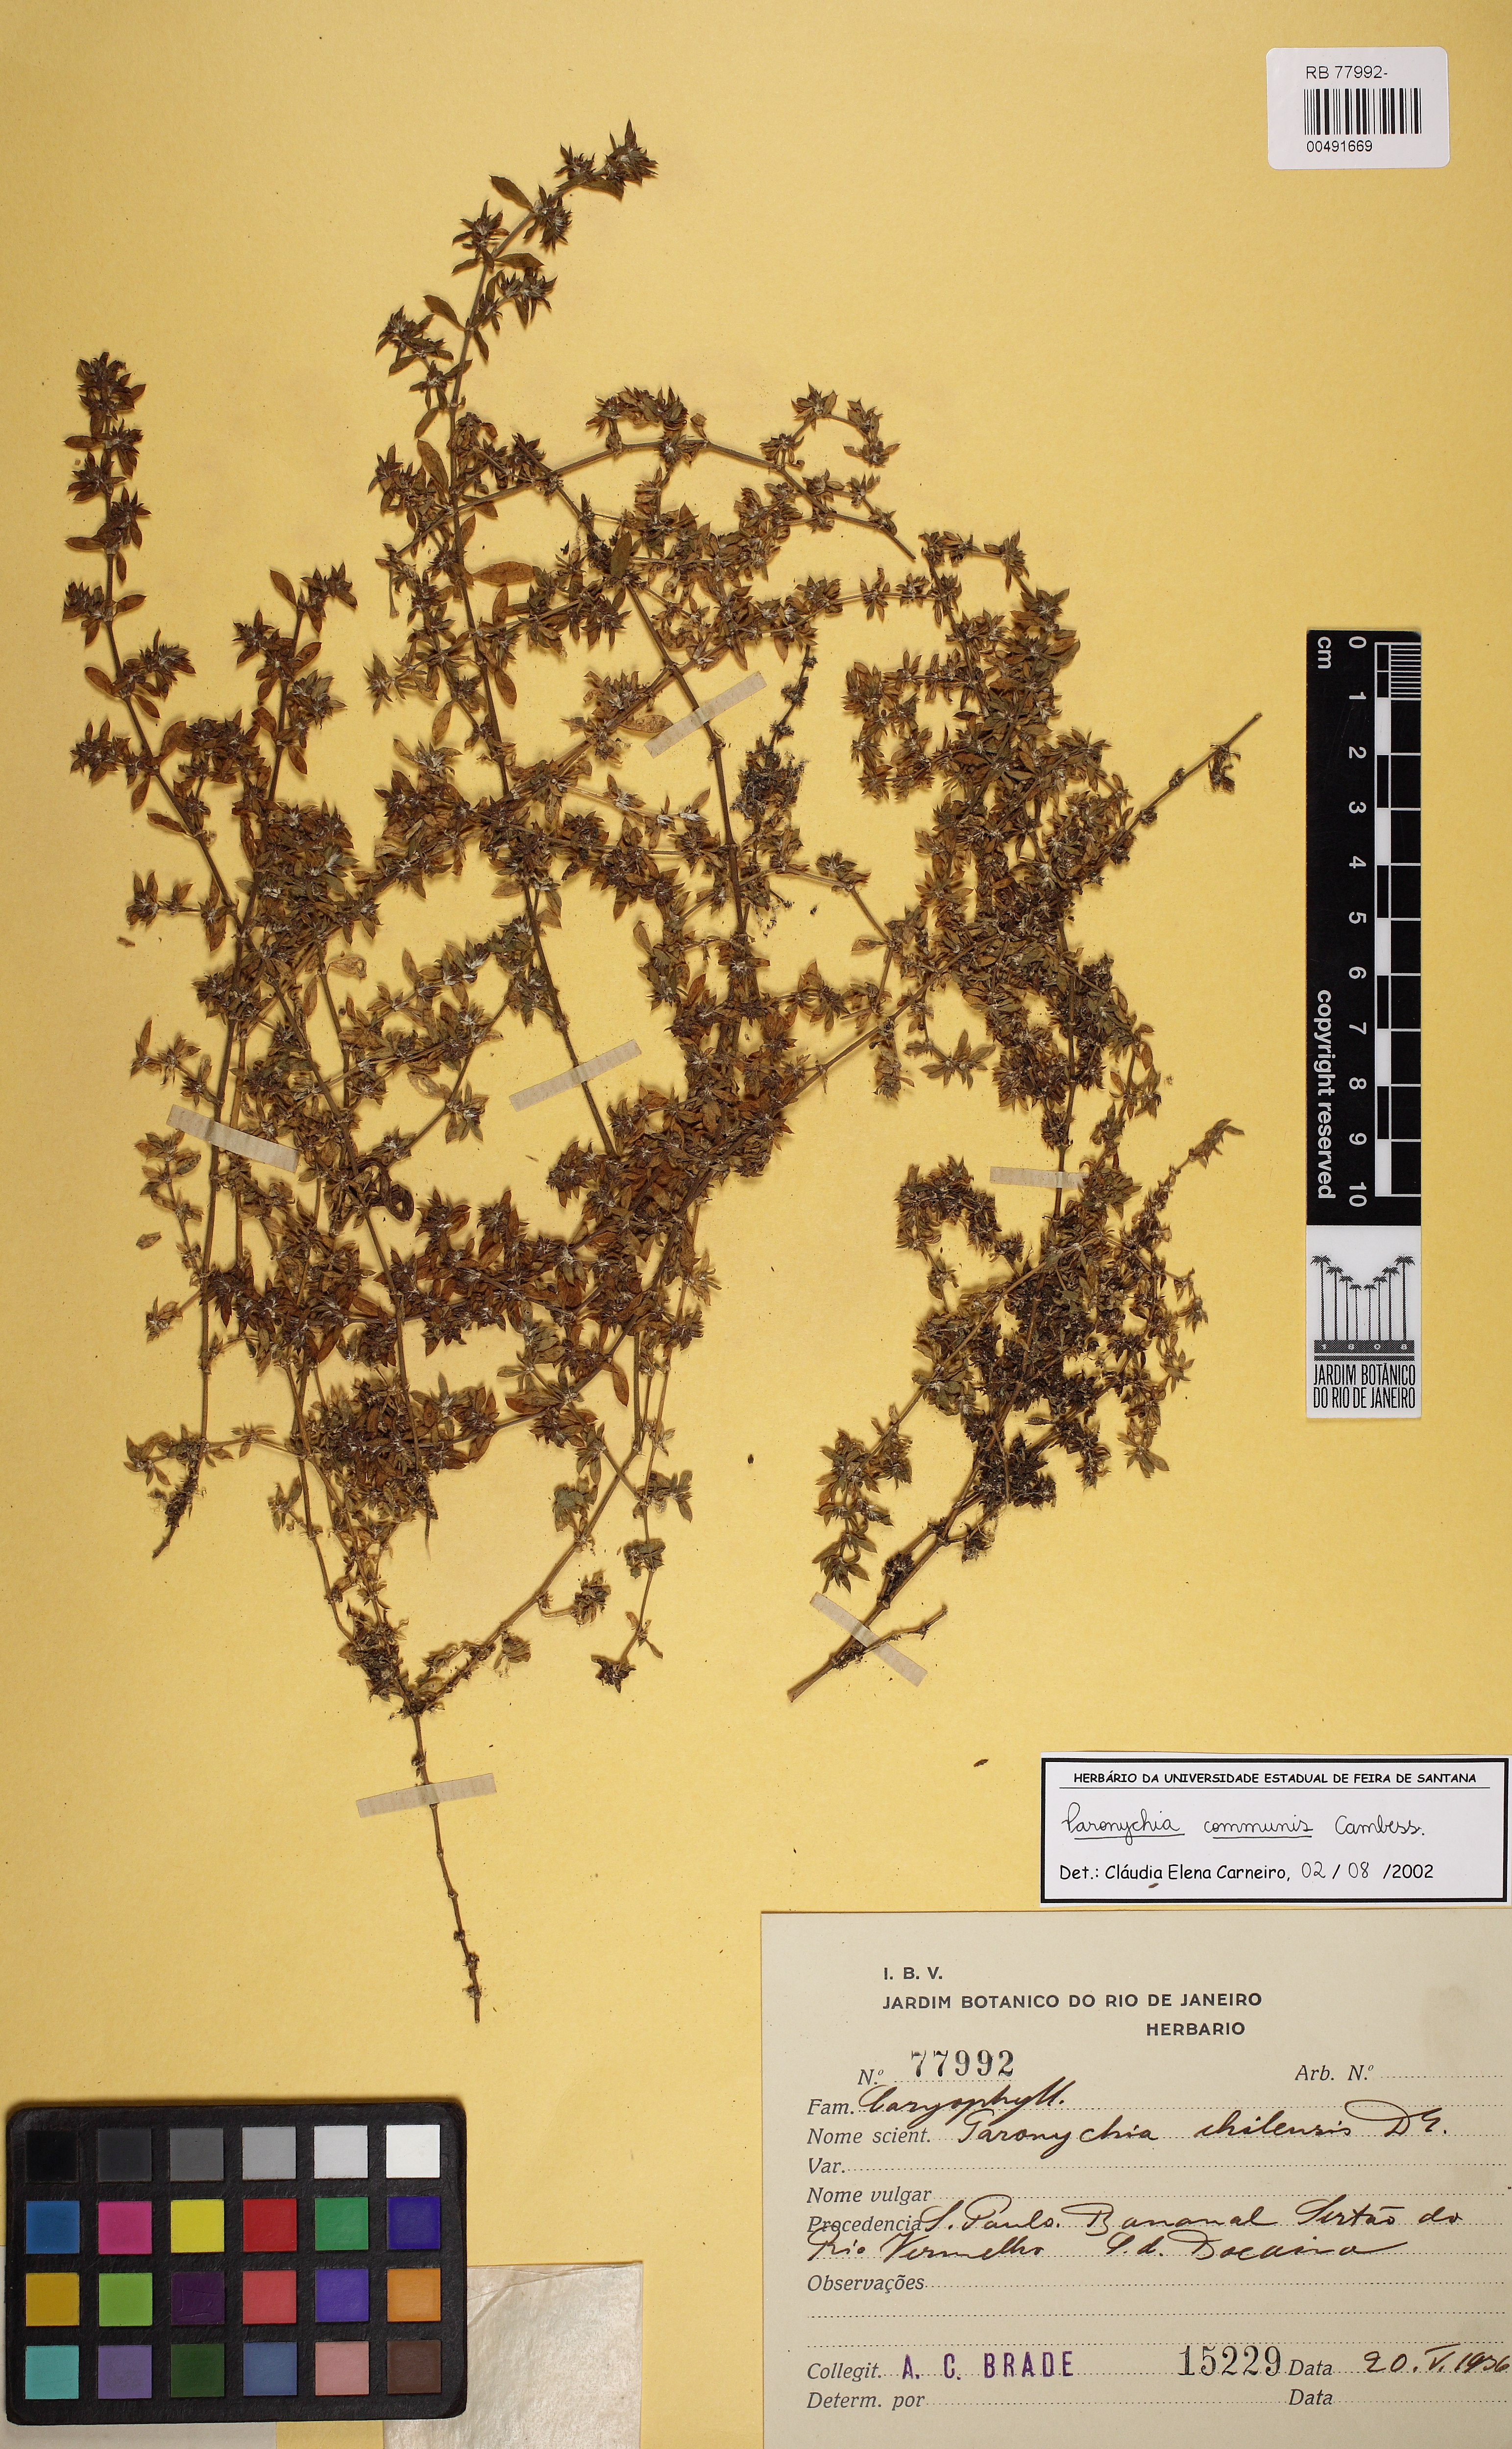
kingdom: Plantae
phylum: Tracheophyta
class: Magnoliopsida
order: Caryophyllales
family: Caryophyllaceae
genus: Paronychia
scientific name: Paronychia communis
